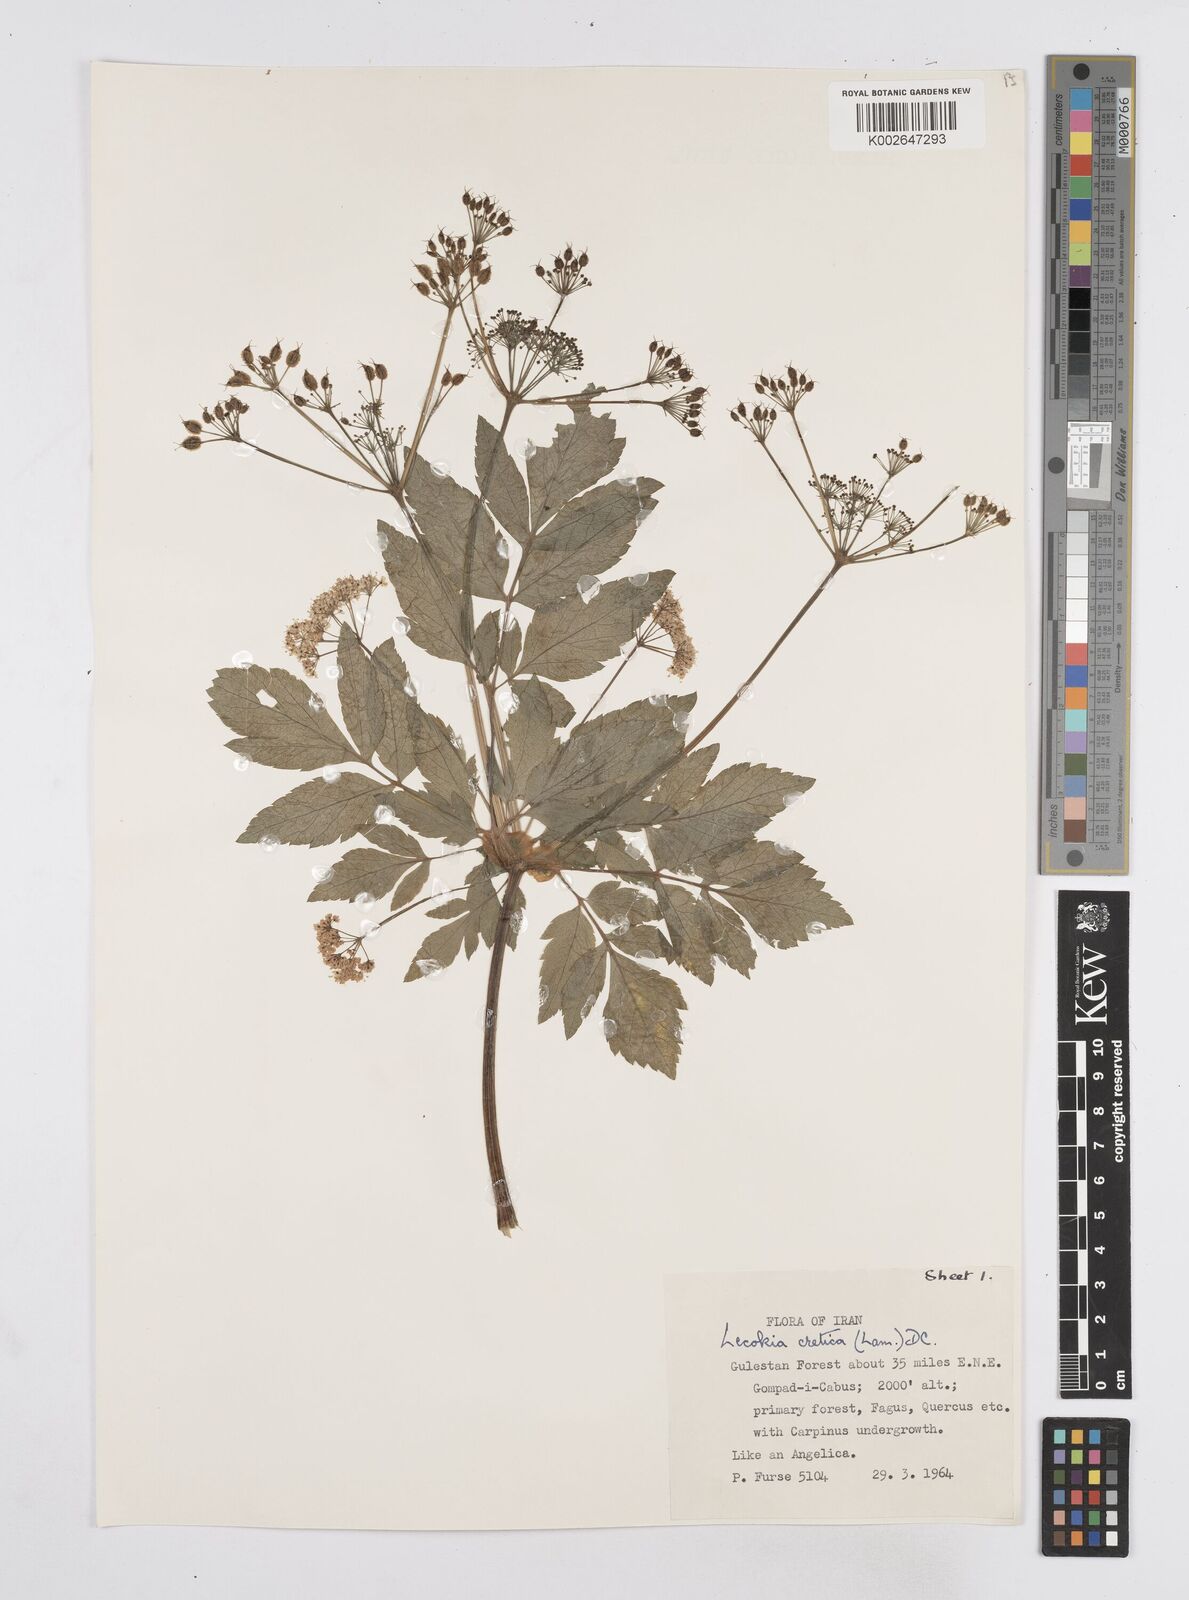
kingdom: Plantae
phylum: Tracheophyta
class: Magnoliopsida
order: Apiales
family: Apiaceae
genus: Lecokia
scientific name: Lecokia cretica
